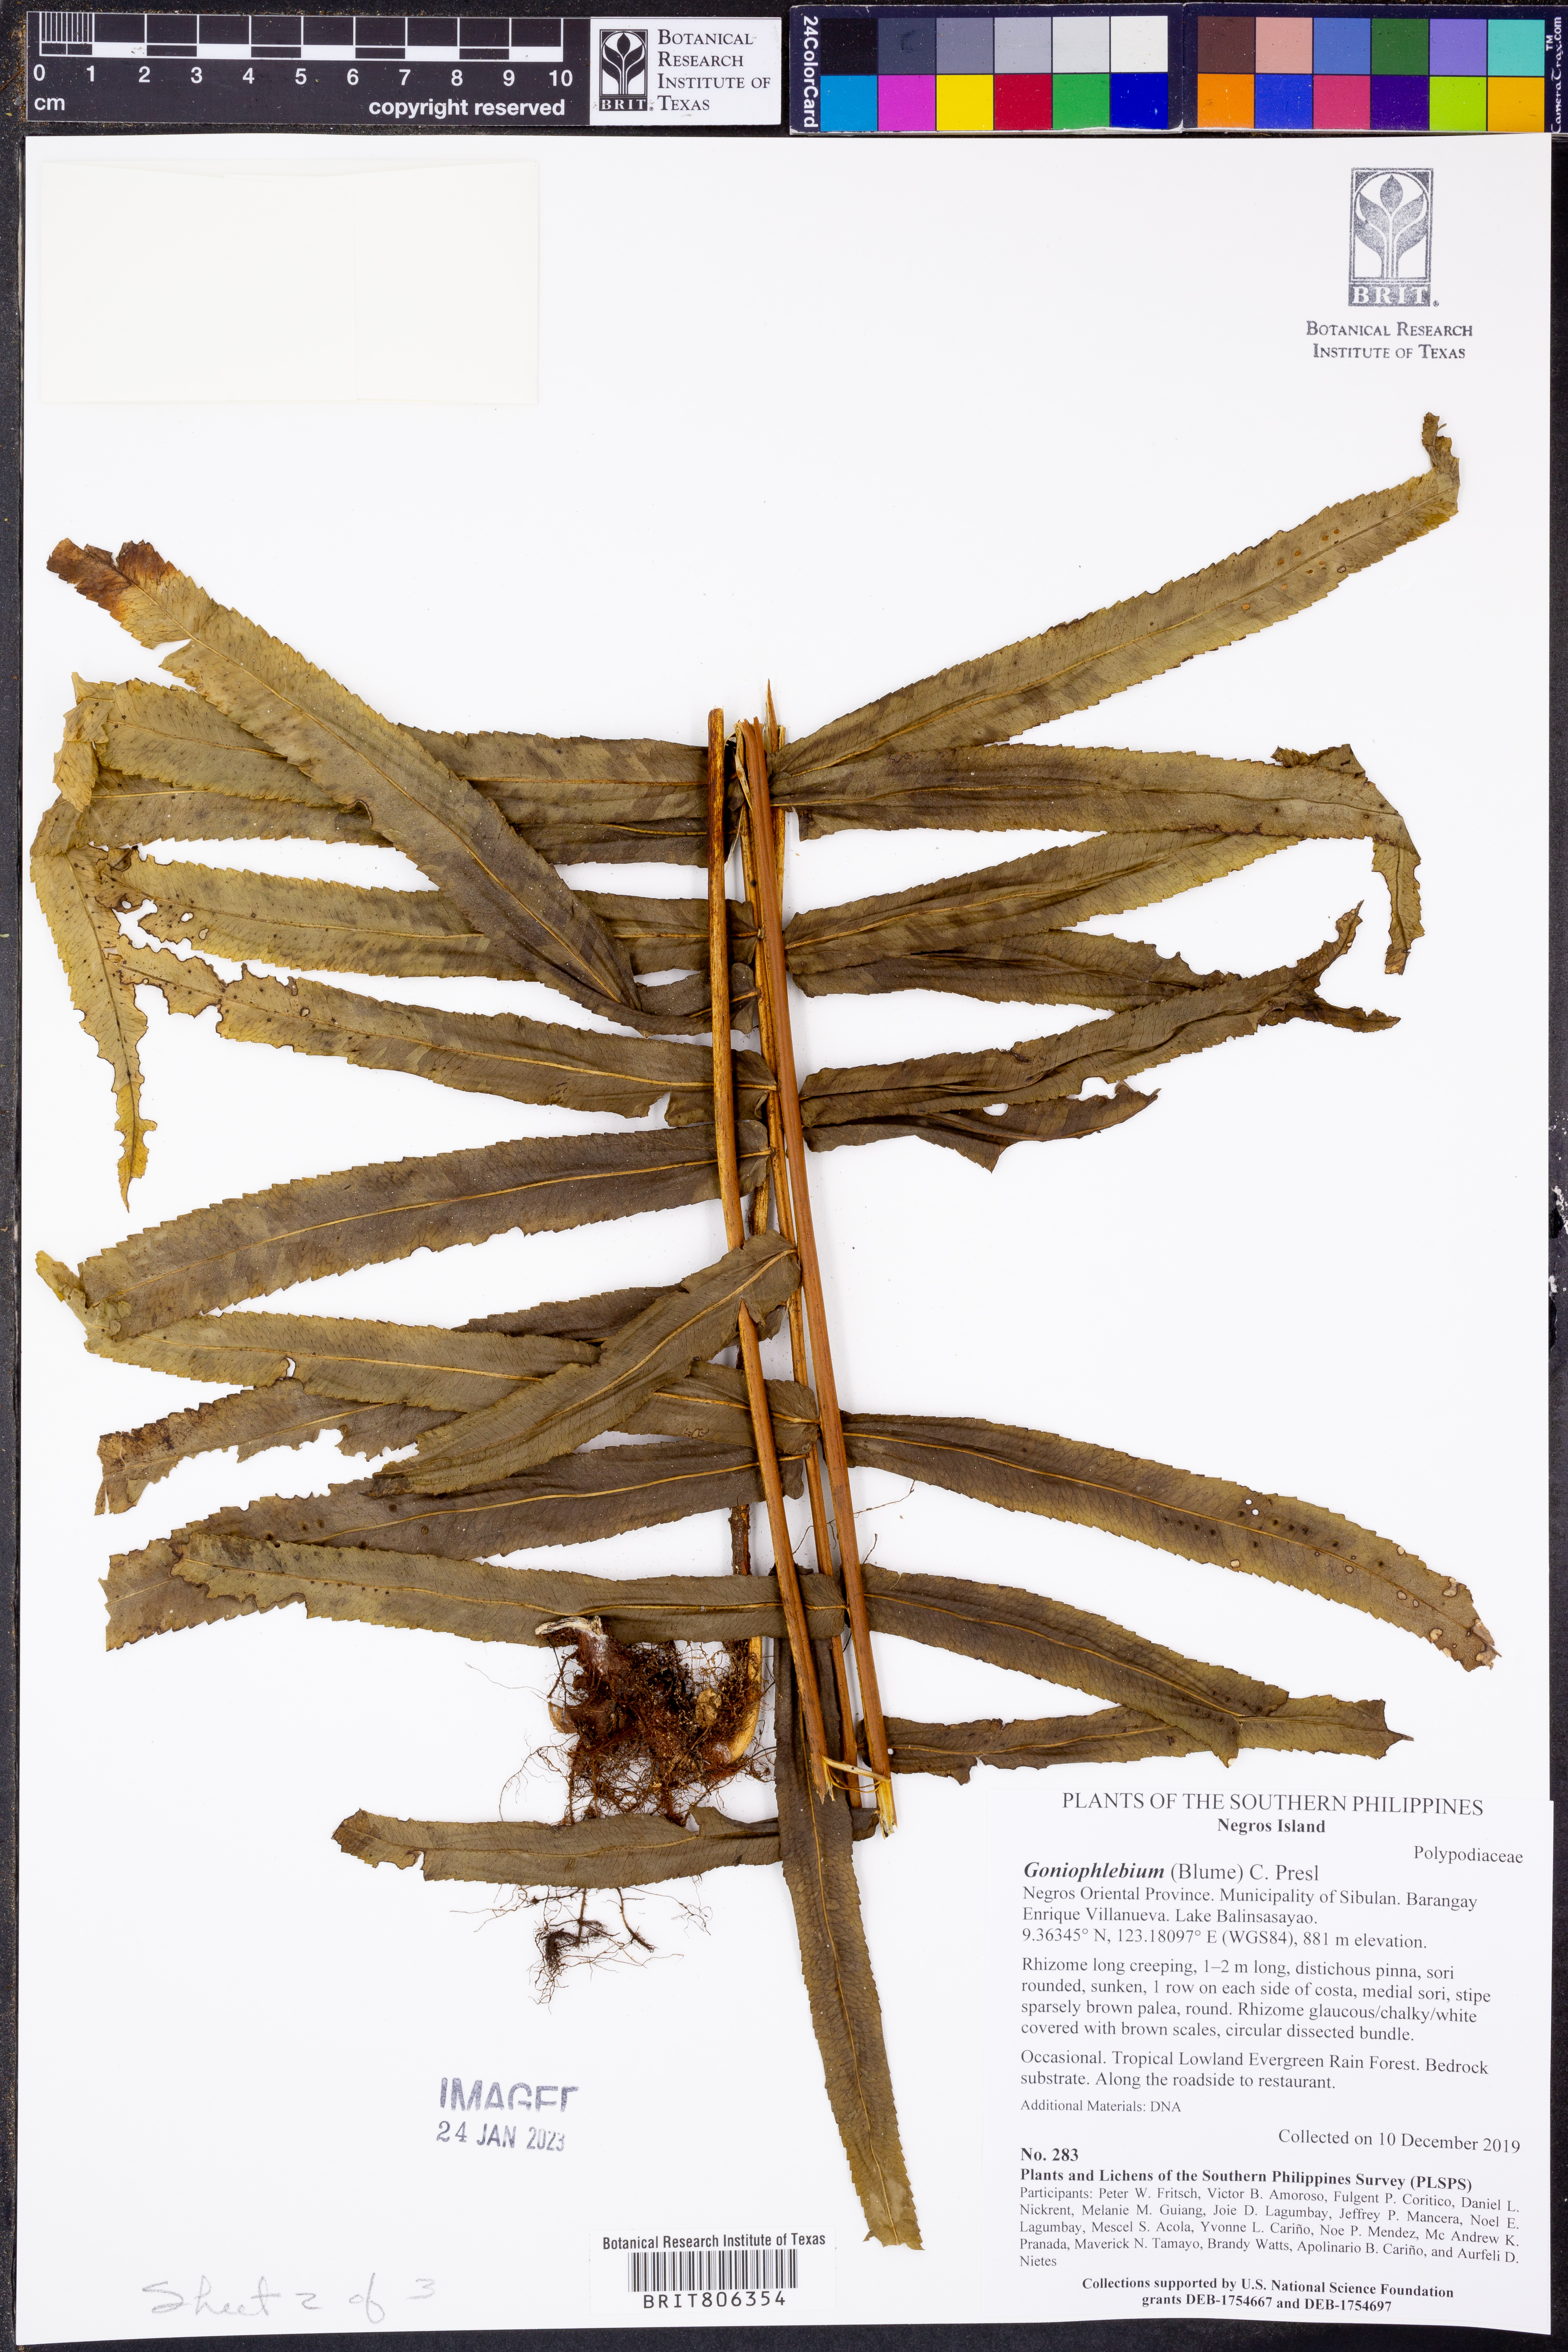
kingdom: Plantae
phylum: Tracheophyta
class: Polypodiopsida
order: Polypodiales
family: Polypodiaceae
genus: Goniophlebium
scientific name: Goniophlebium
